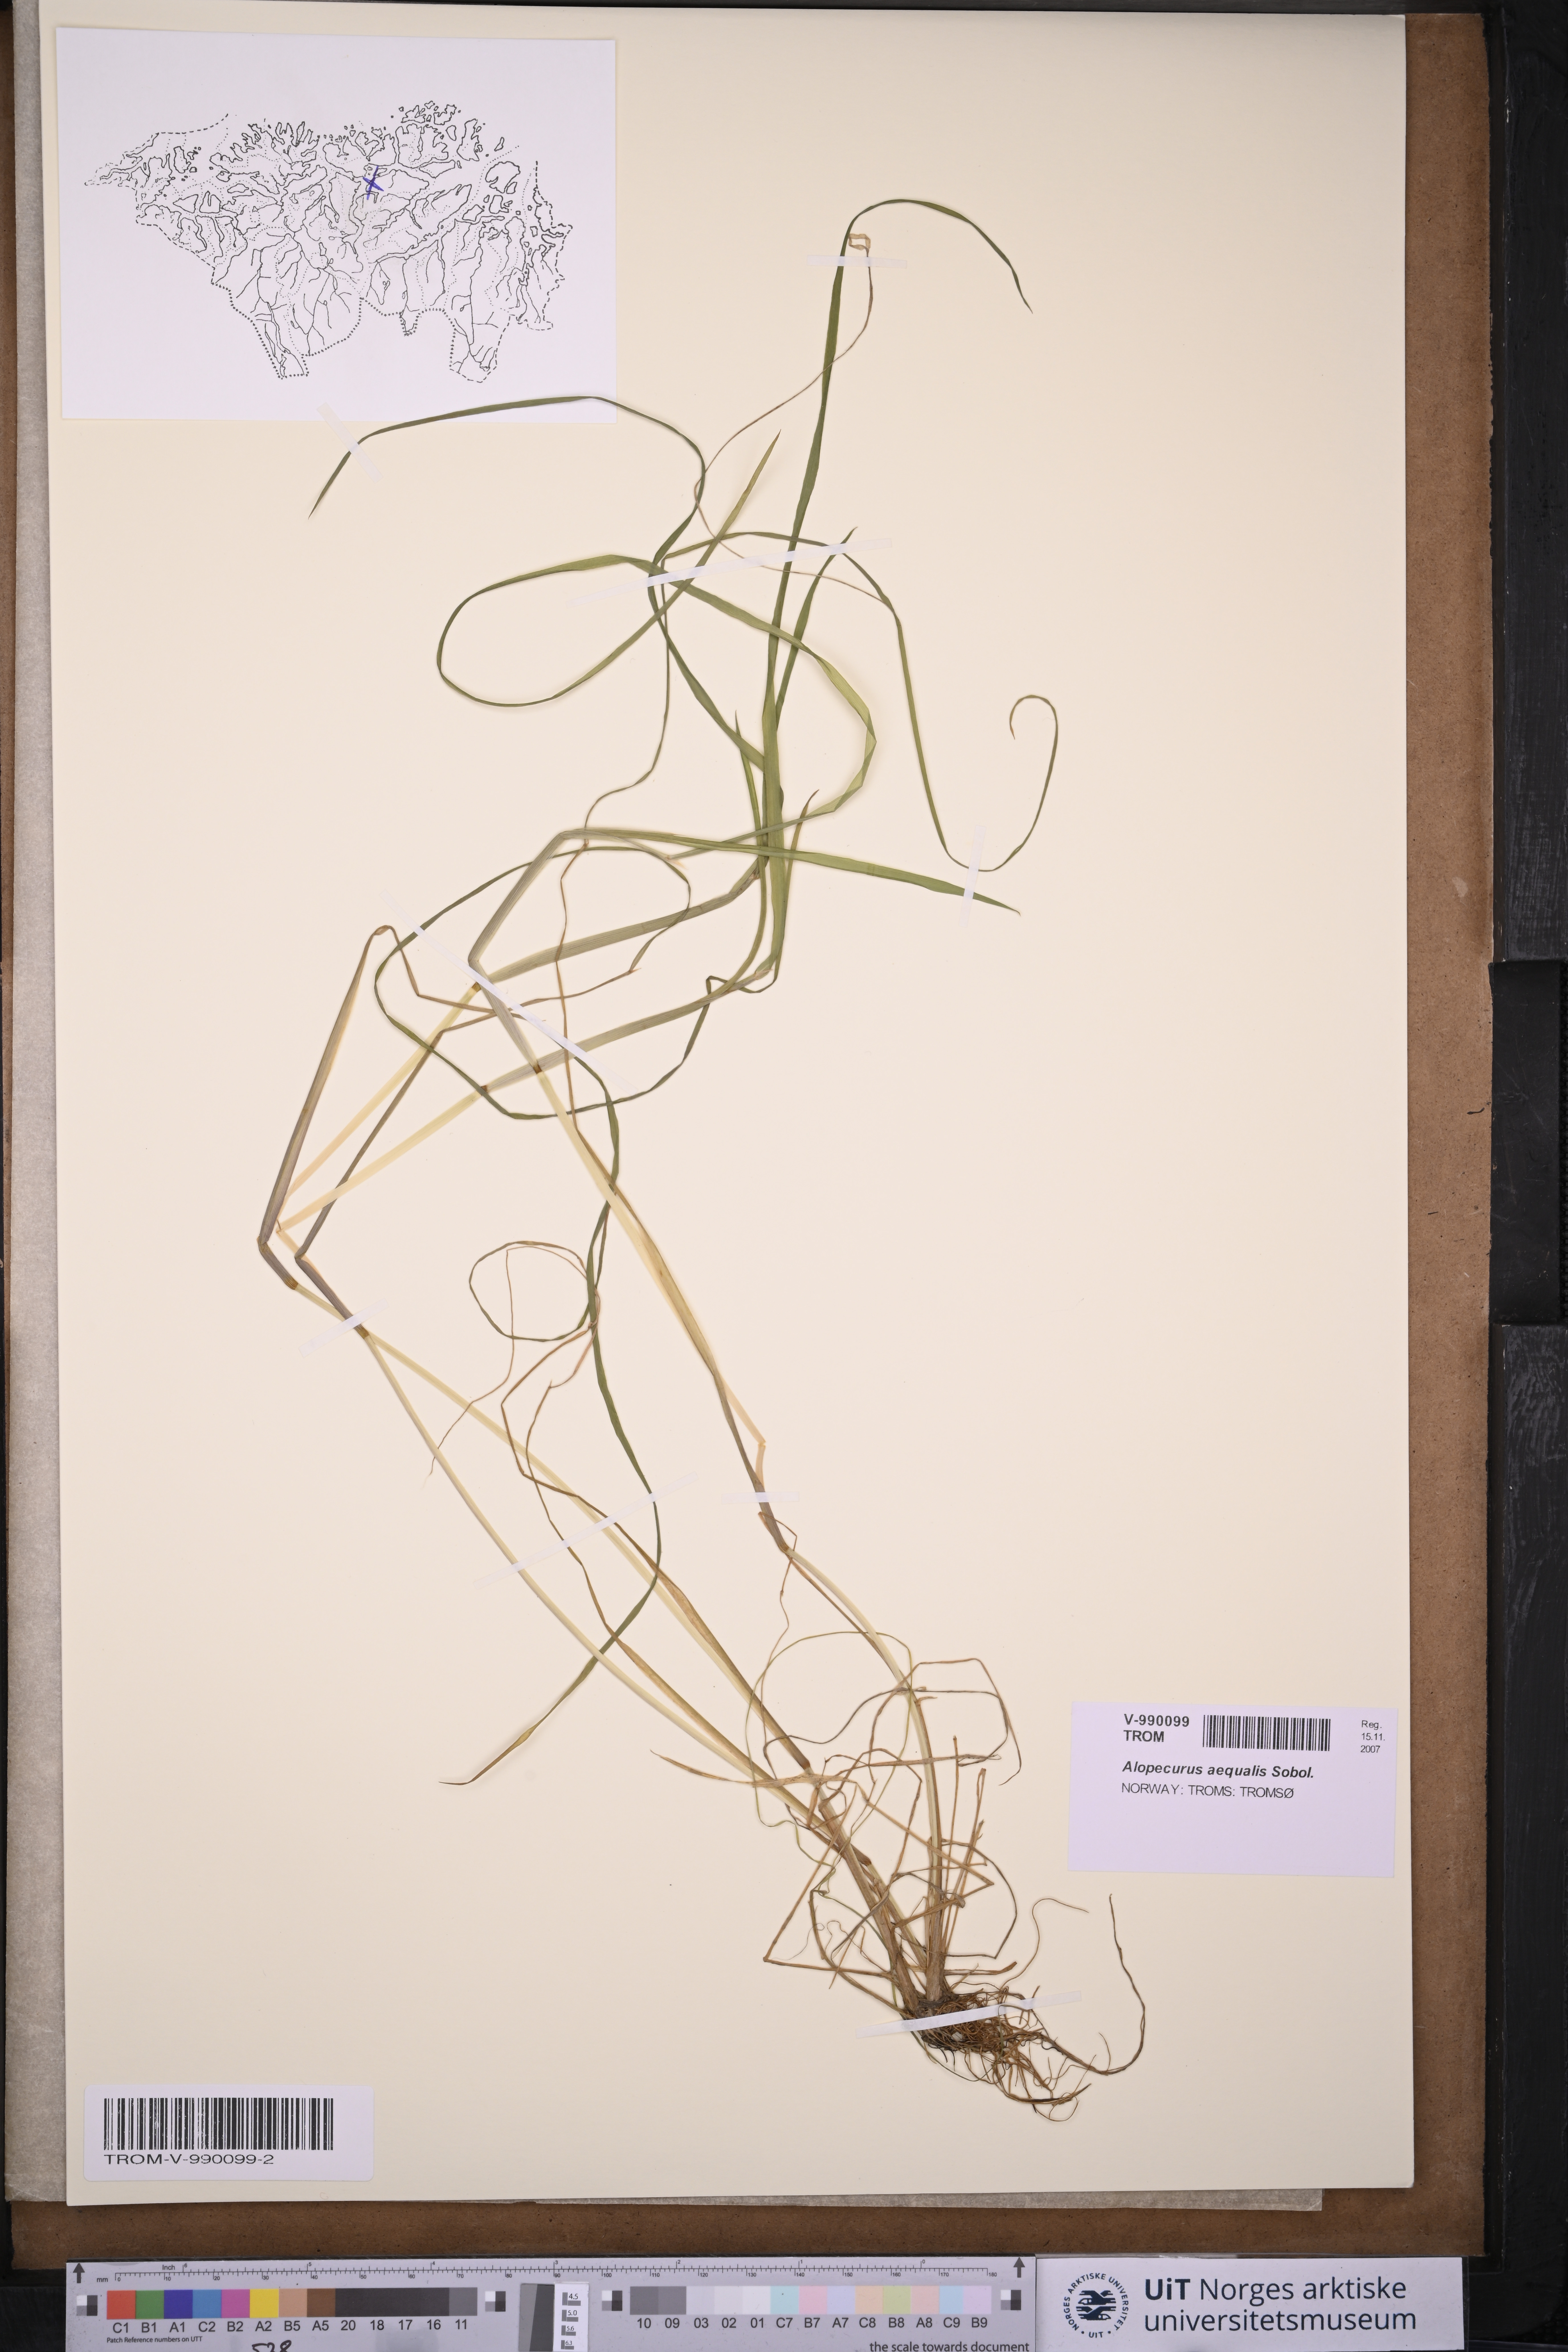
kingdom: Plantae
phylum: Tracheophyta
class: Liliopsida
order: Poales
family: Poaceae
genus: Alopecurus
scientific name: Alopecurus aequalis
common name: Orange foxtail
